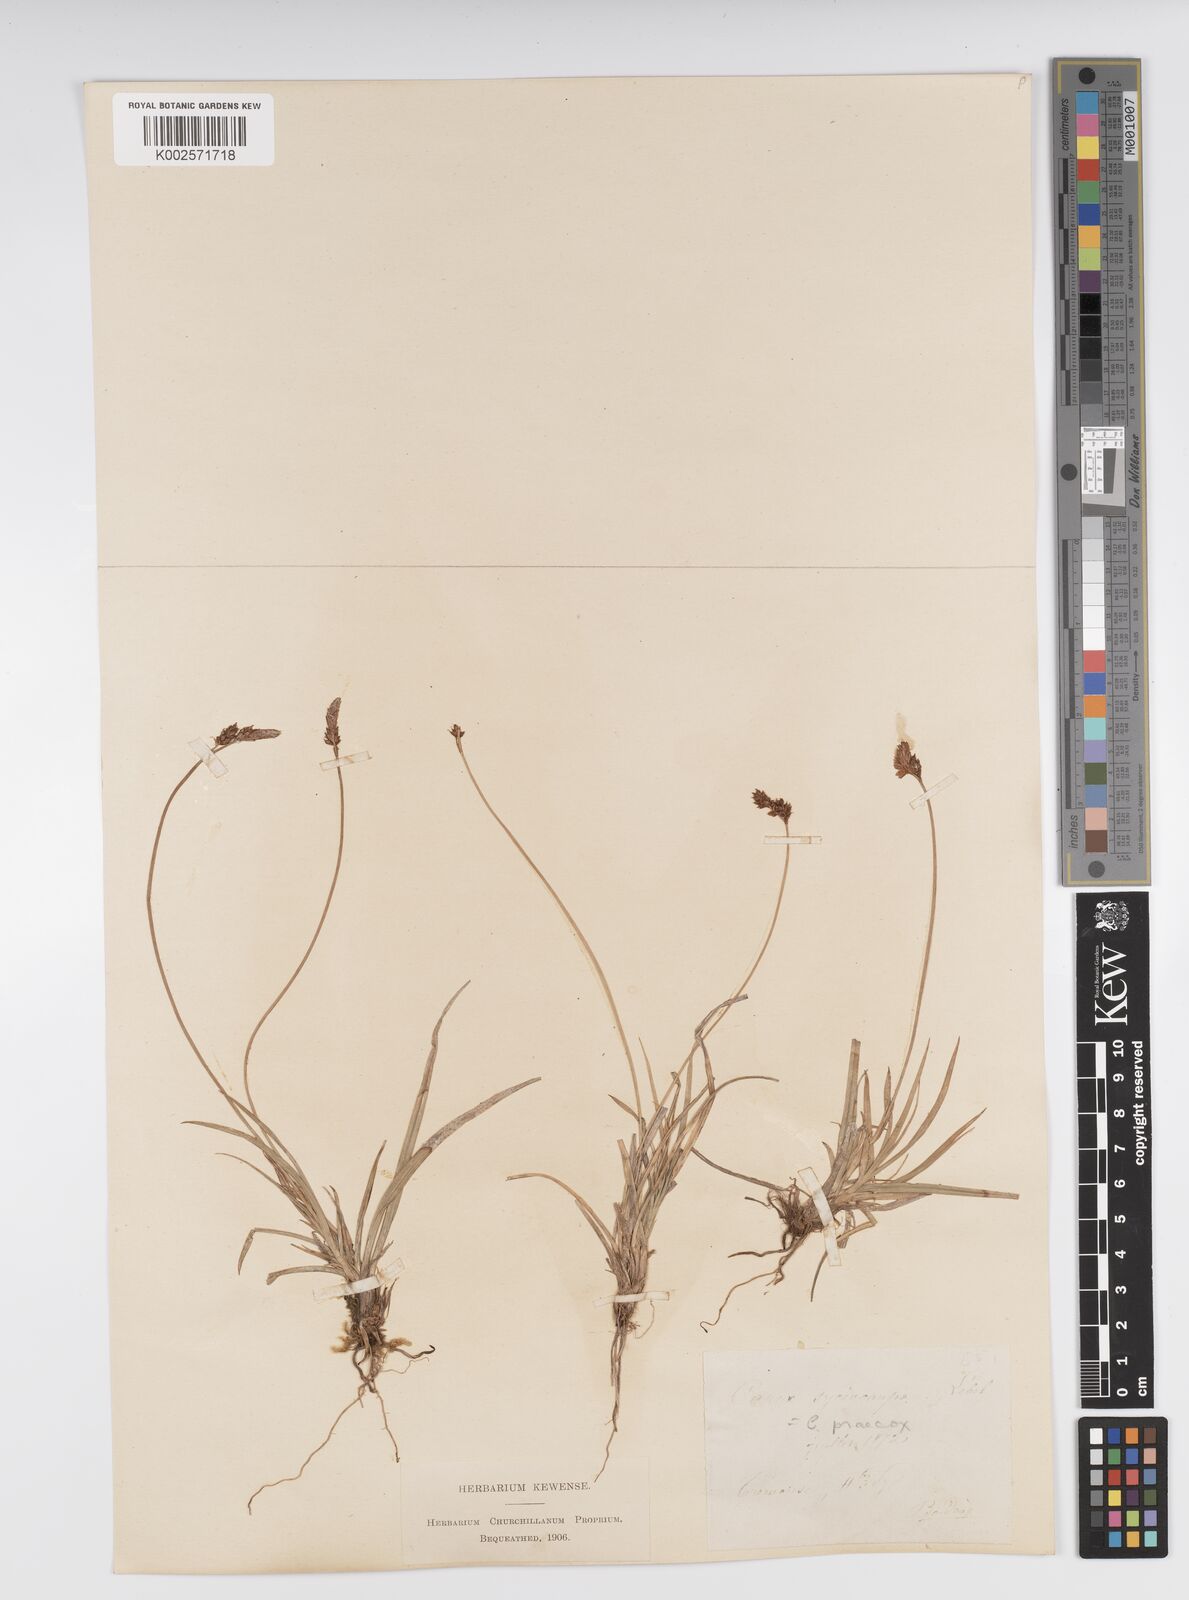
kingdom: Plantae
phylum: Tracheophyta
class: Liliopsida
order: Poales
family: Cyperaceae
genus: Carex
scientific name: Carex caryophyllea
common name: Spring sedge
